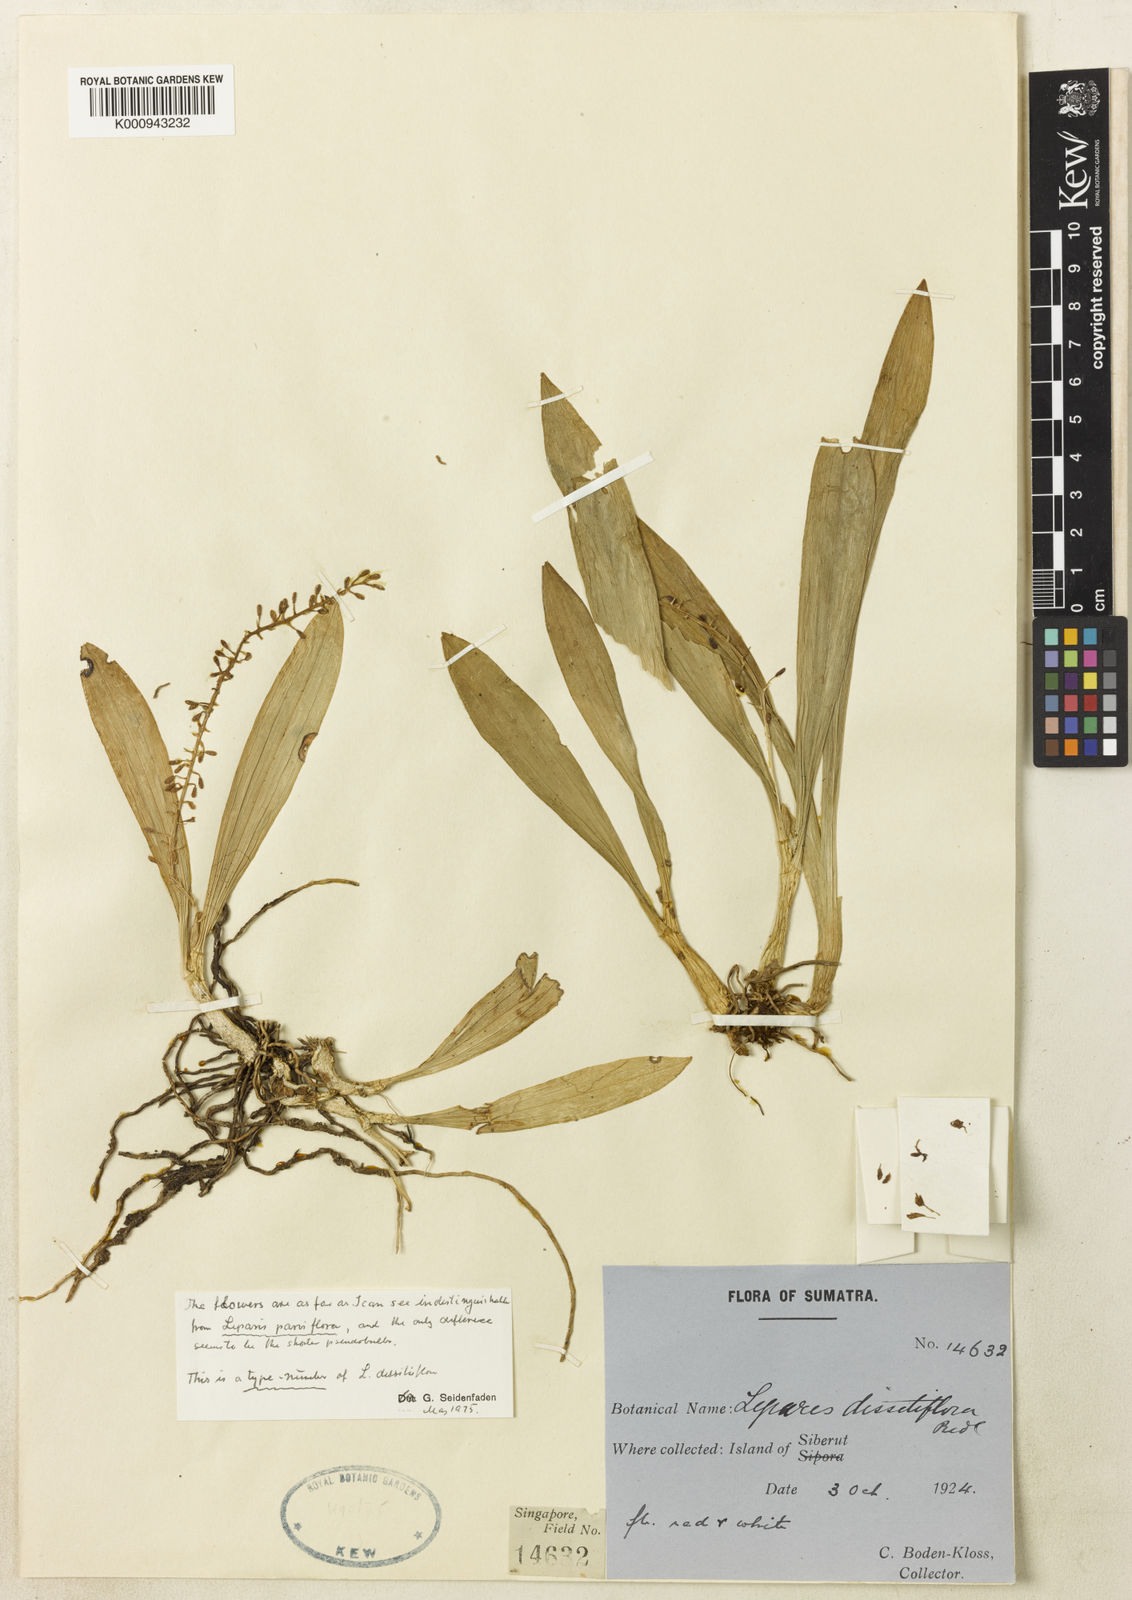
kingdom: Plantae
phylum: Tracheophyta
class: Liliopsida
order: Asparagales
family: Orchidaceae
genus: Liparis
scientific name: Liparis parviflora
